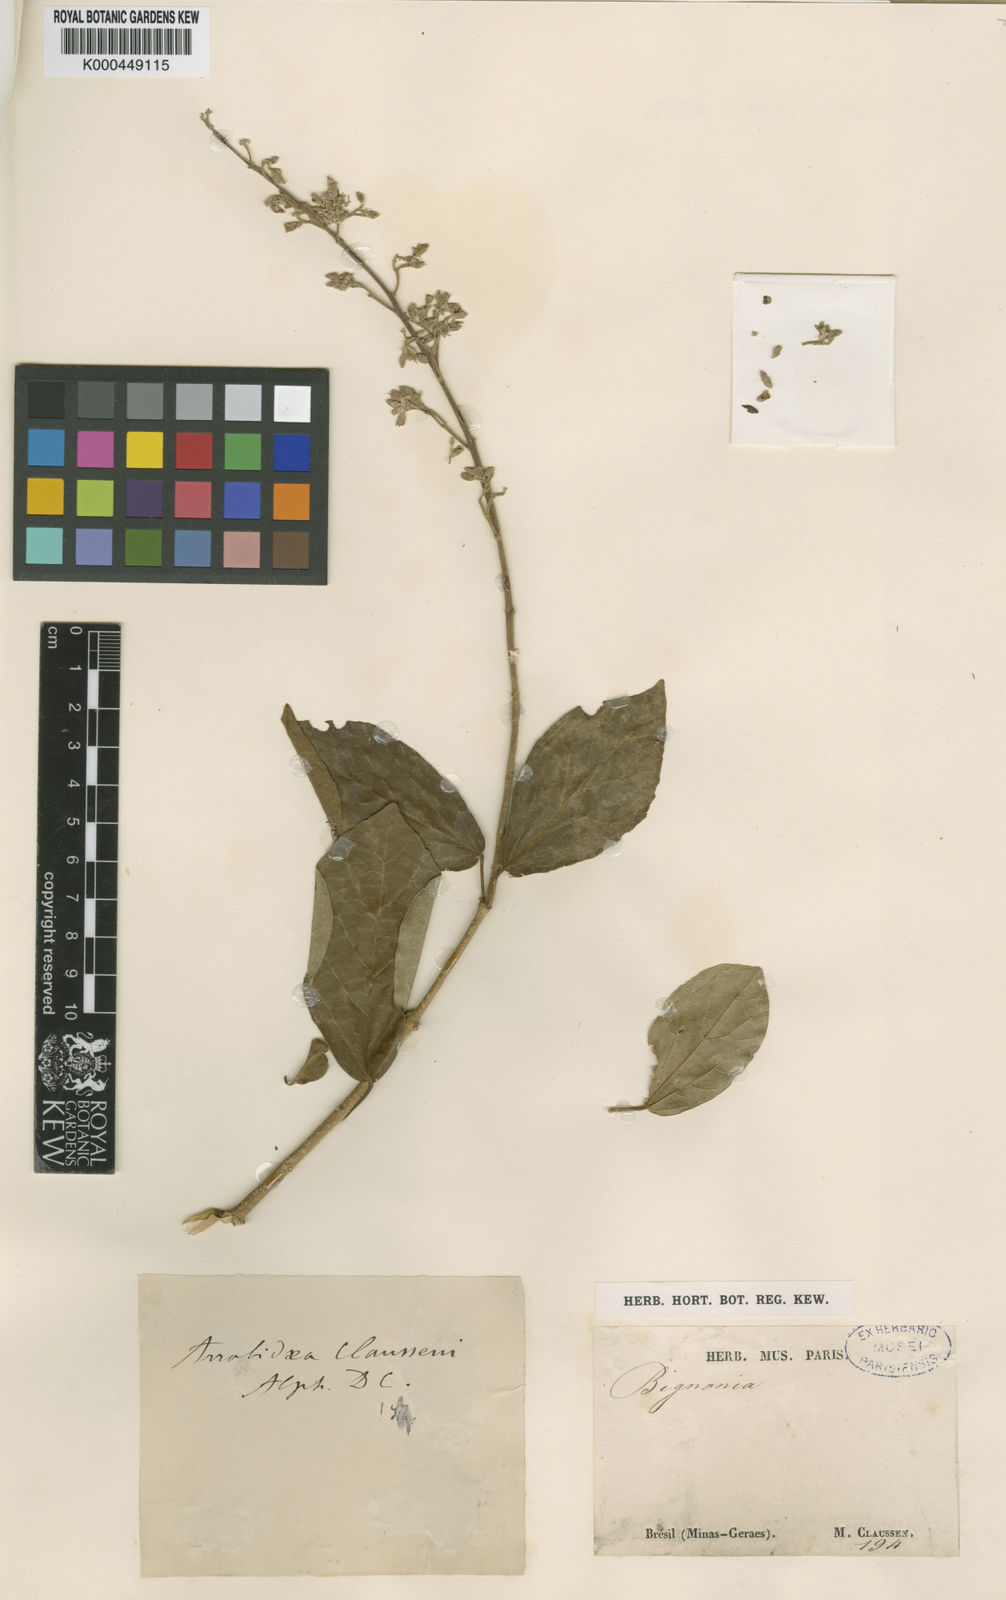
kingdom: Plantae
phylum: Tracheophyta
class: Magnoliopsida
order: Lamiales
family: Bignoniaceae
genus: Xylophragma
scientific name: Xylophragma claussenii
